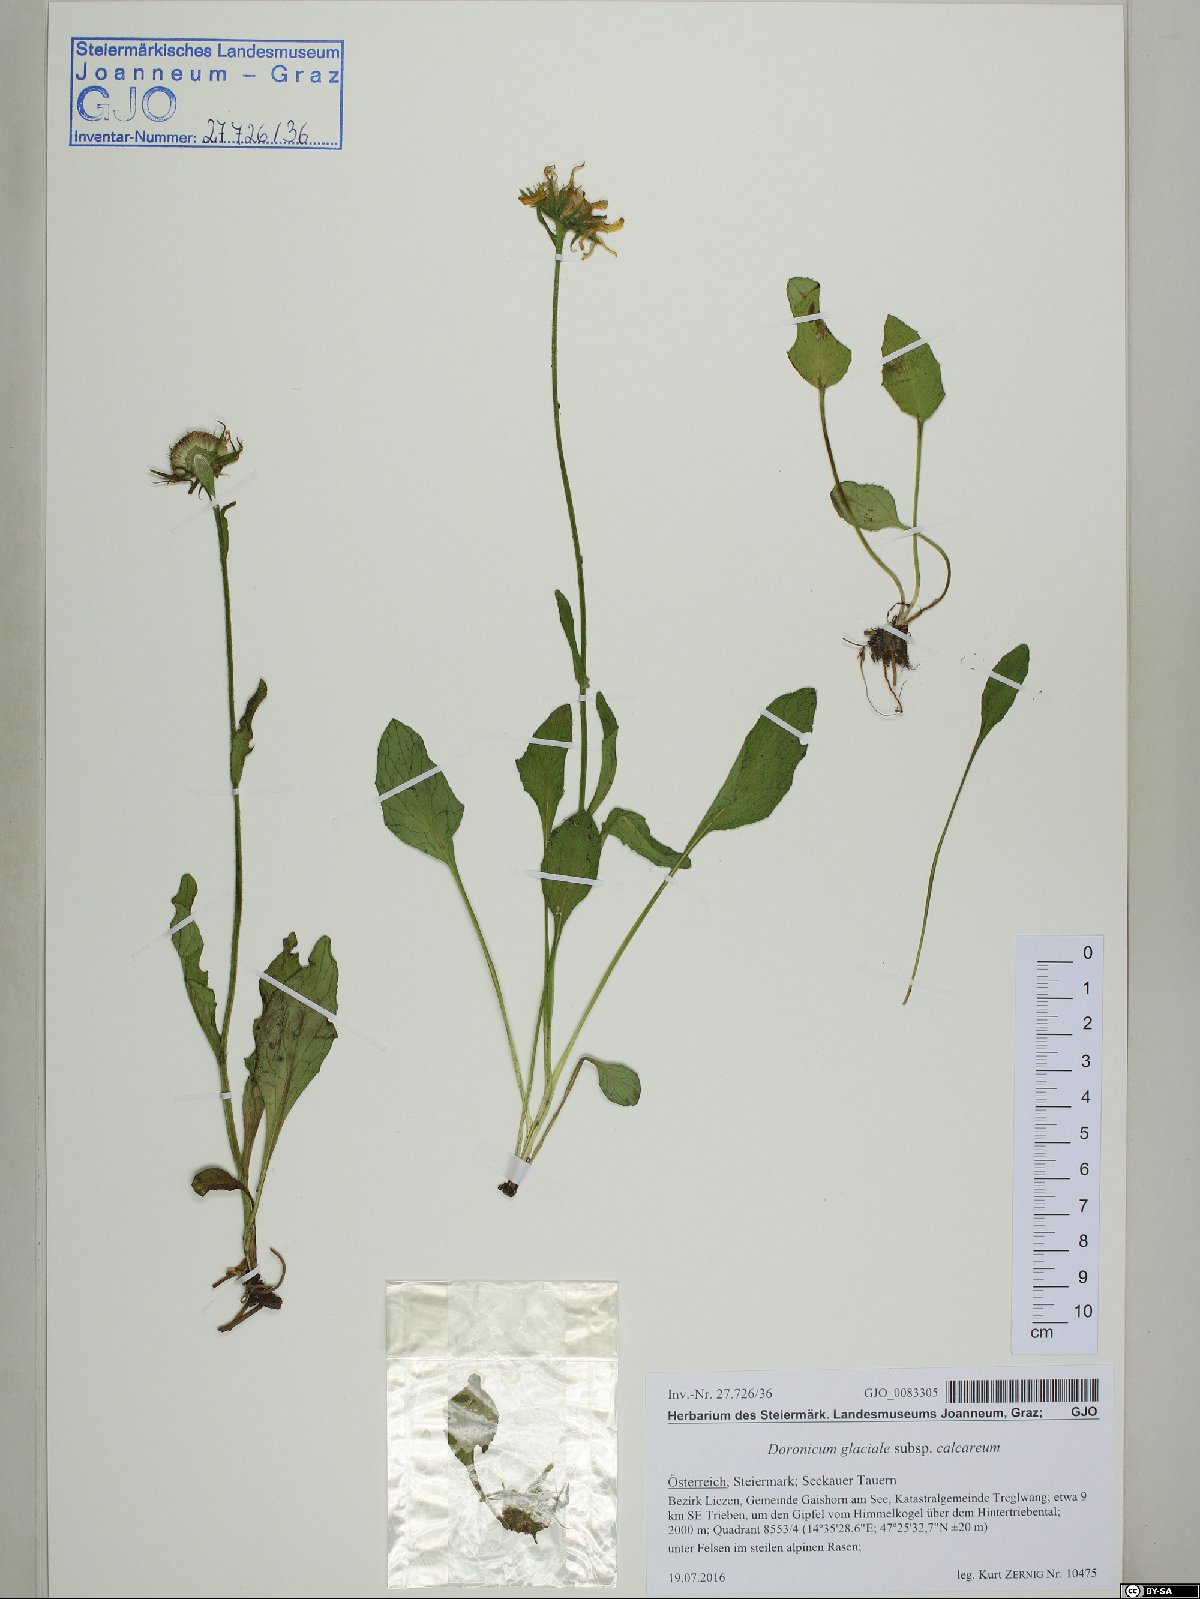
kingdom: Plantae
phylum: Tracheophyta
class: Magnoliopsida
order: Asterales
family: Asteraceae
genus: Doronicum
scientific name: Doronicum glaciale
